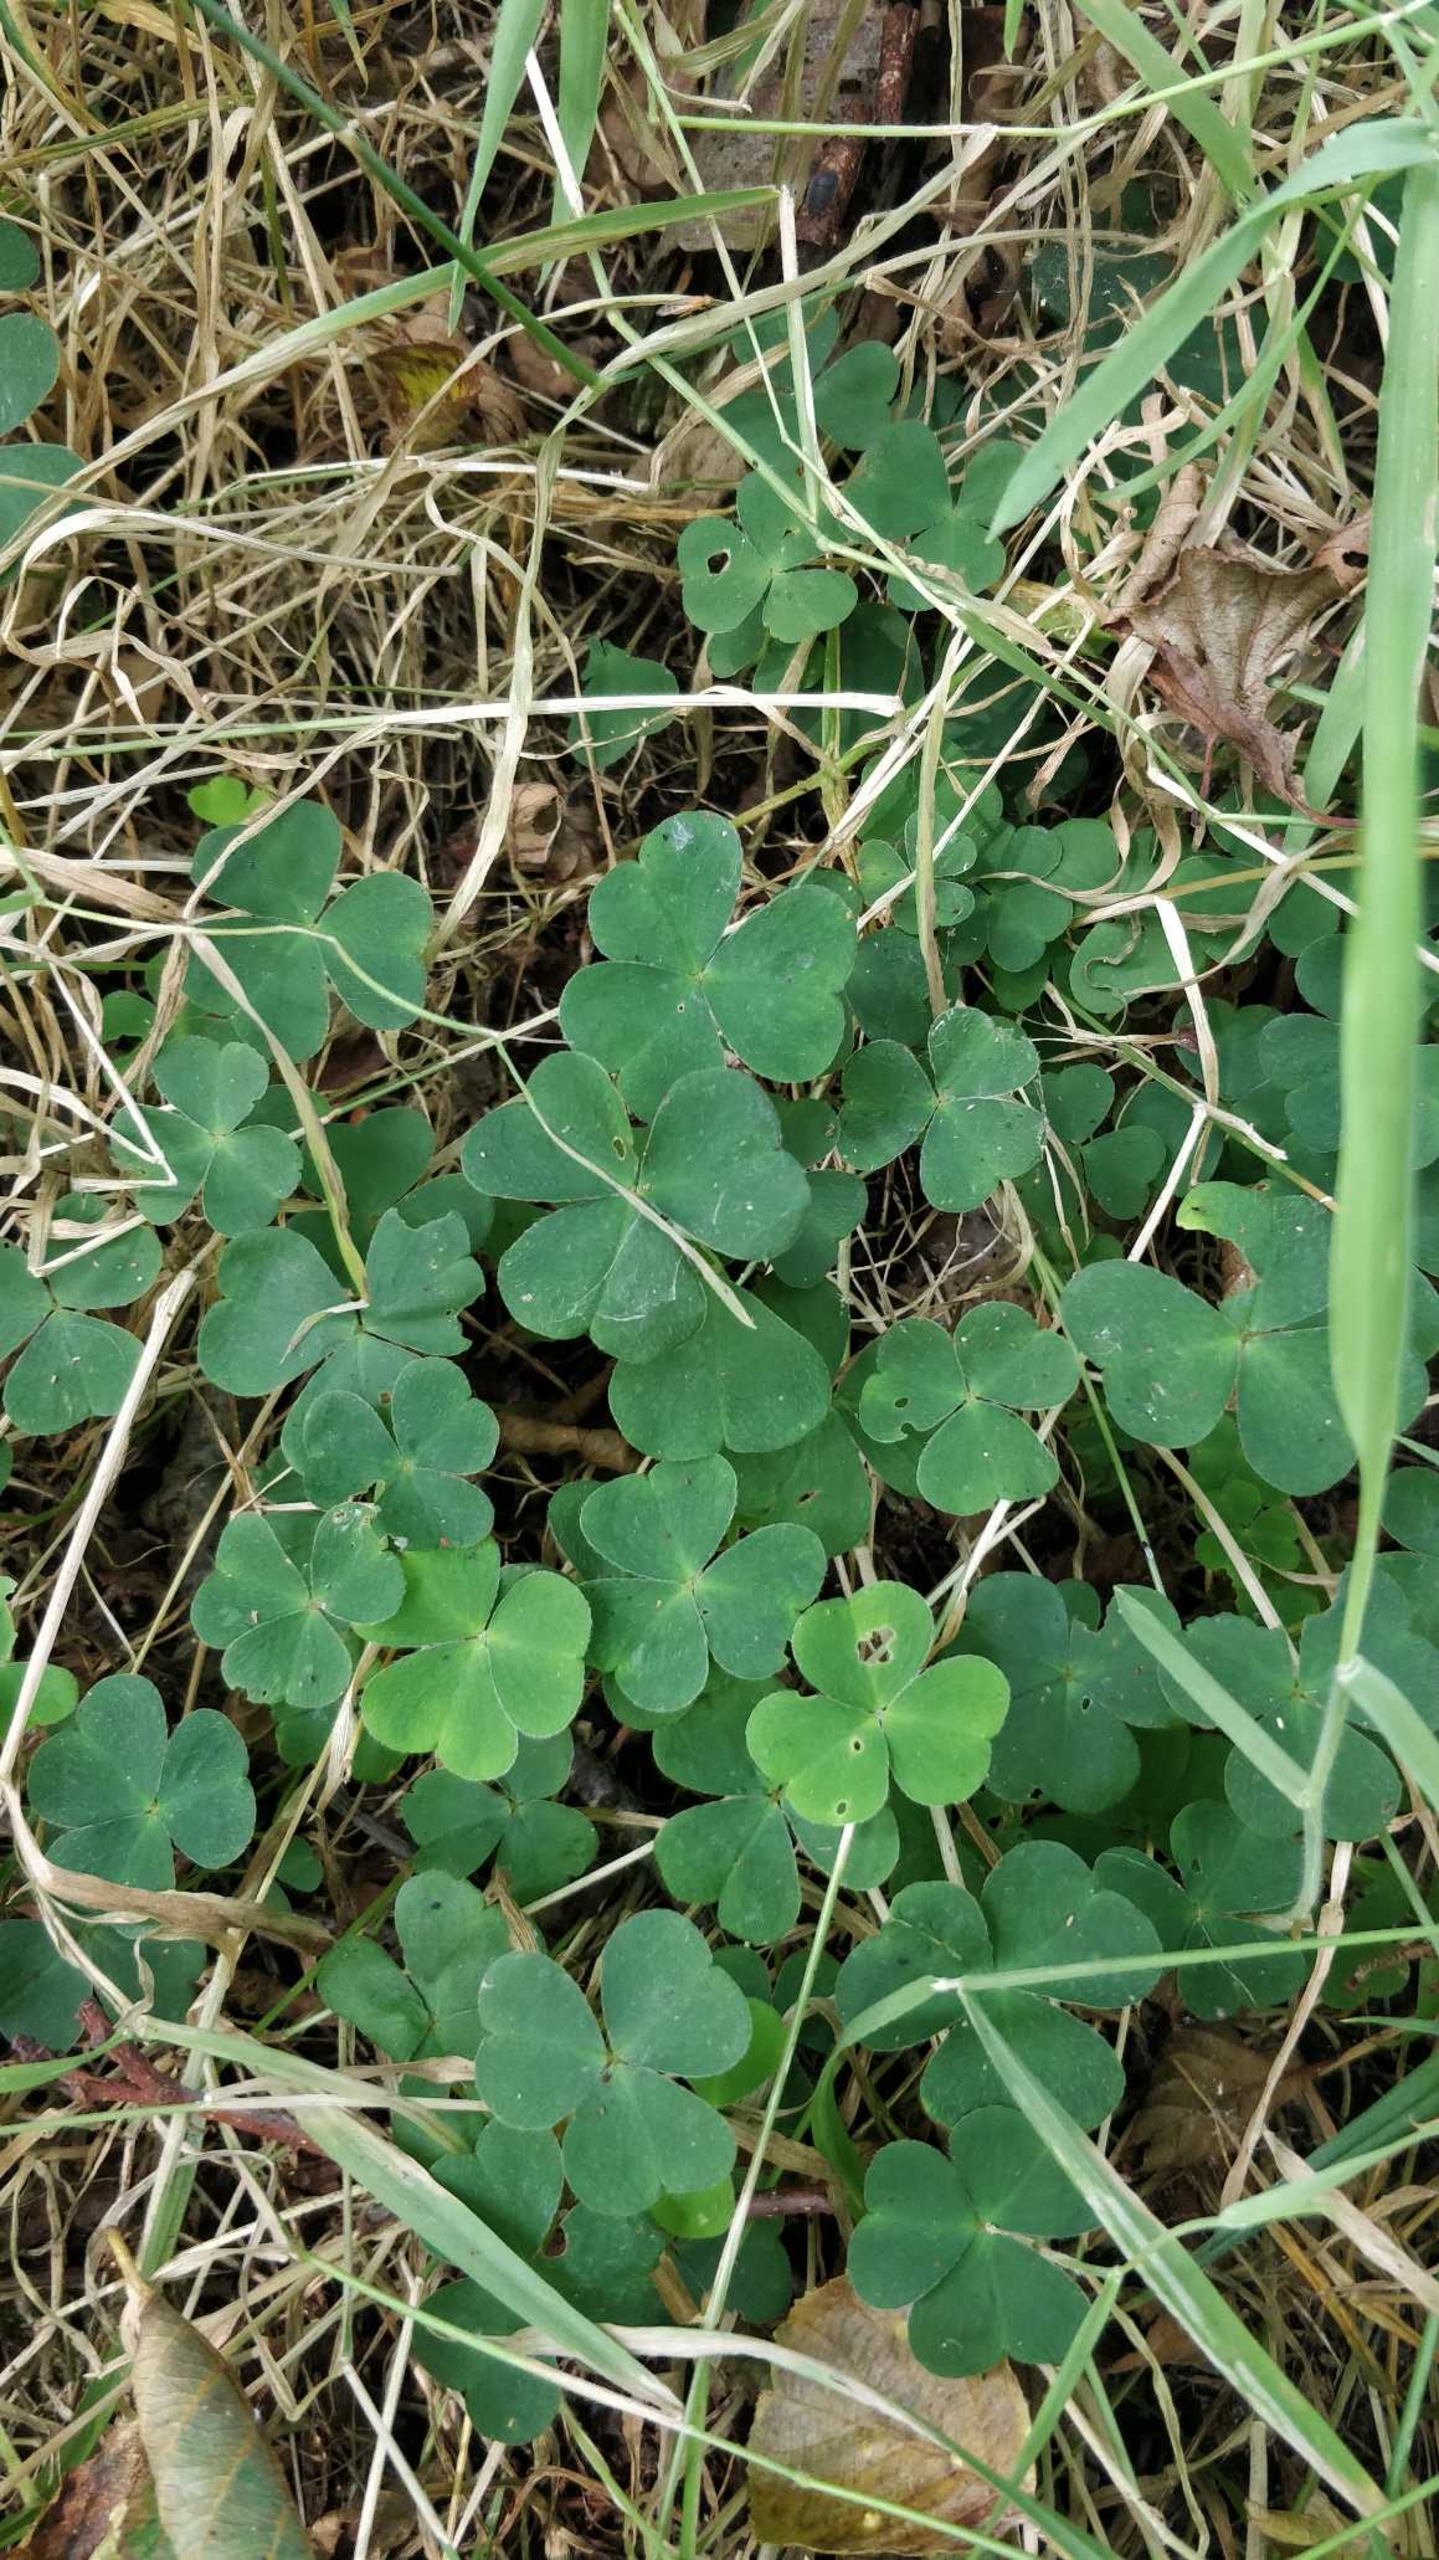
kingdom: Plantae
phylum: Tracheophyta
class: Magnoliopsida
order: Oxalidales
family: Oxalidaceae
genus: Oxalis
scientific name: Oxalis acetosella
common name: Skovsyre
